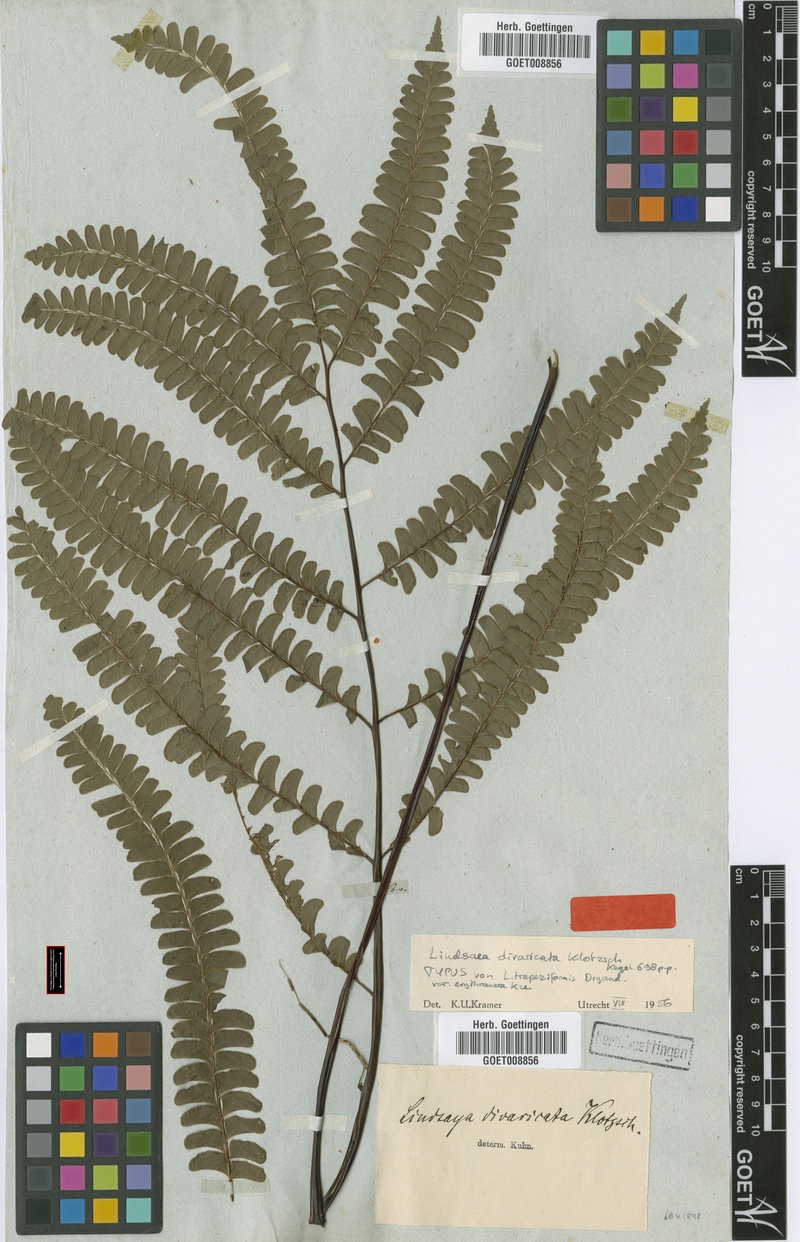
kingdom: Plantae
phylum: Tracheophyta
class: Polypodiopsida
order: Polypodiales
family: Lindsaeaceae
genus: Lindsaea
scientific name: Lindsaea divaricata
